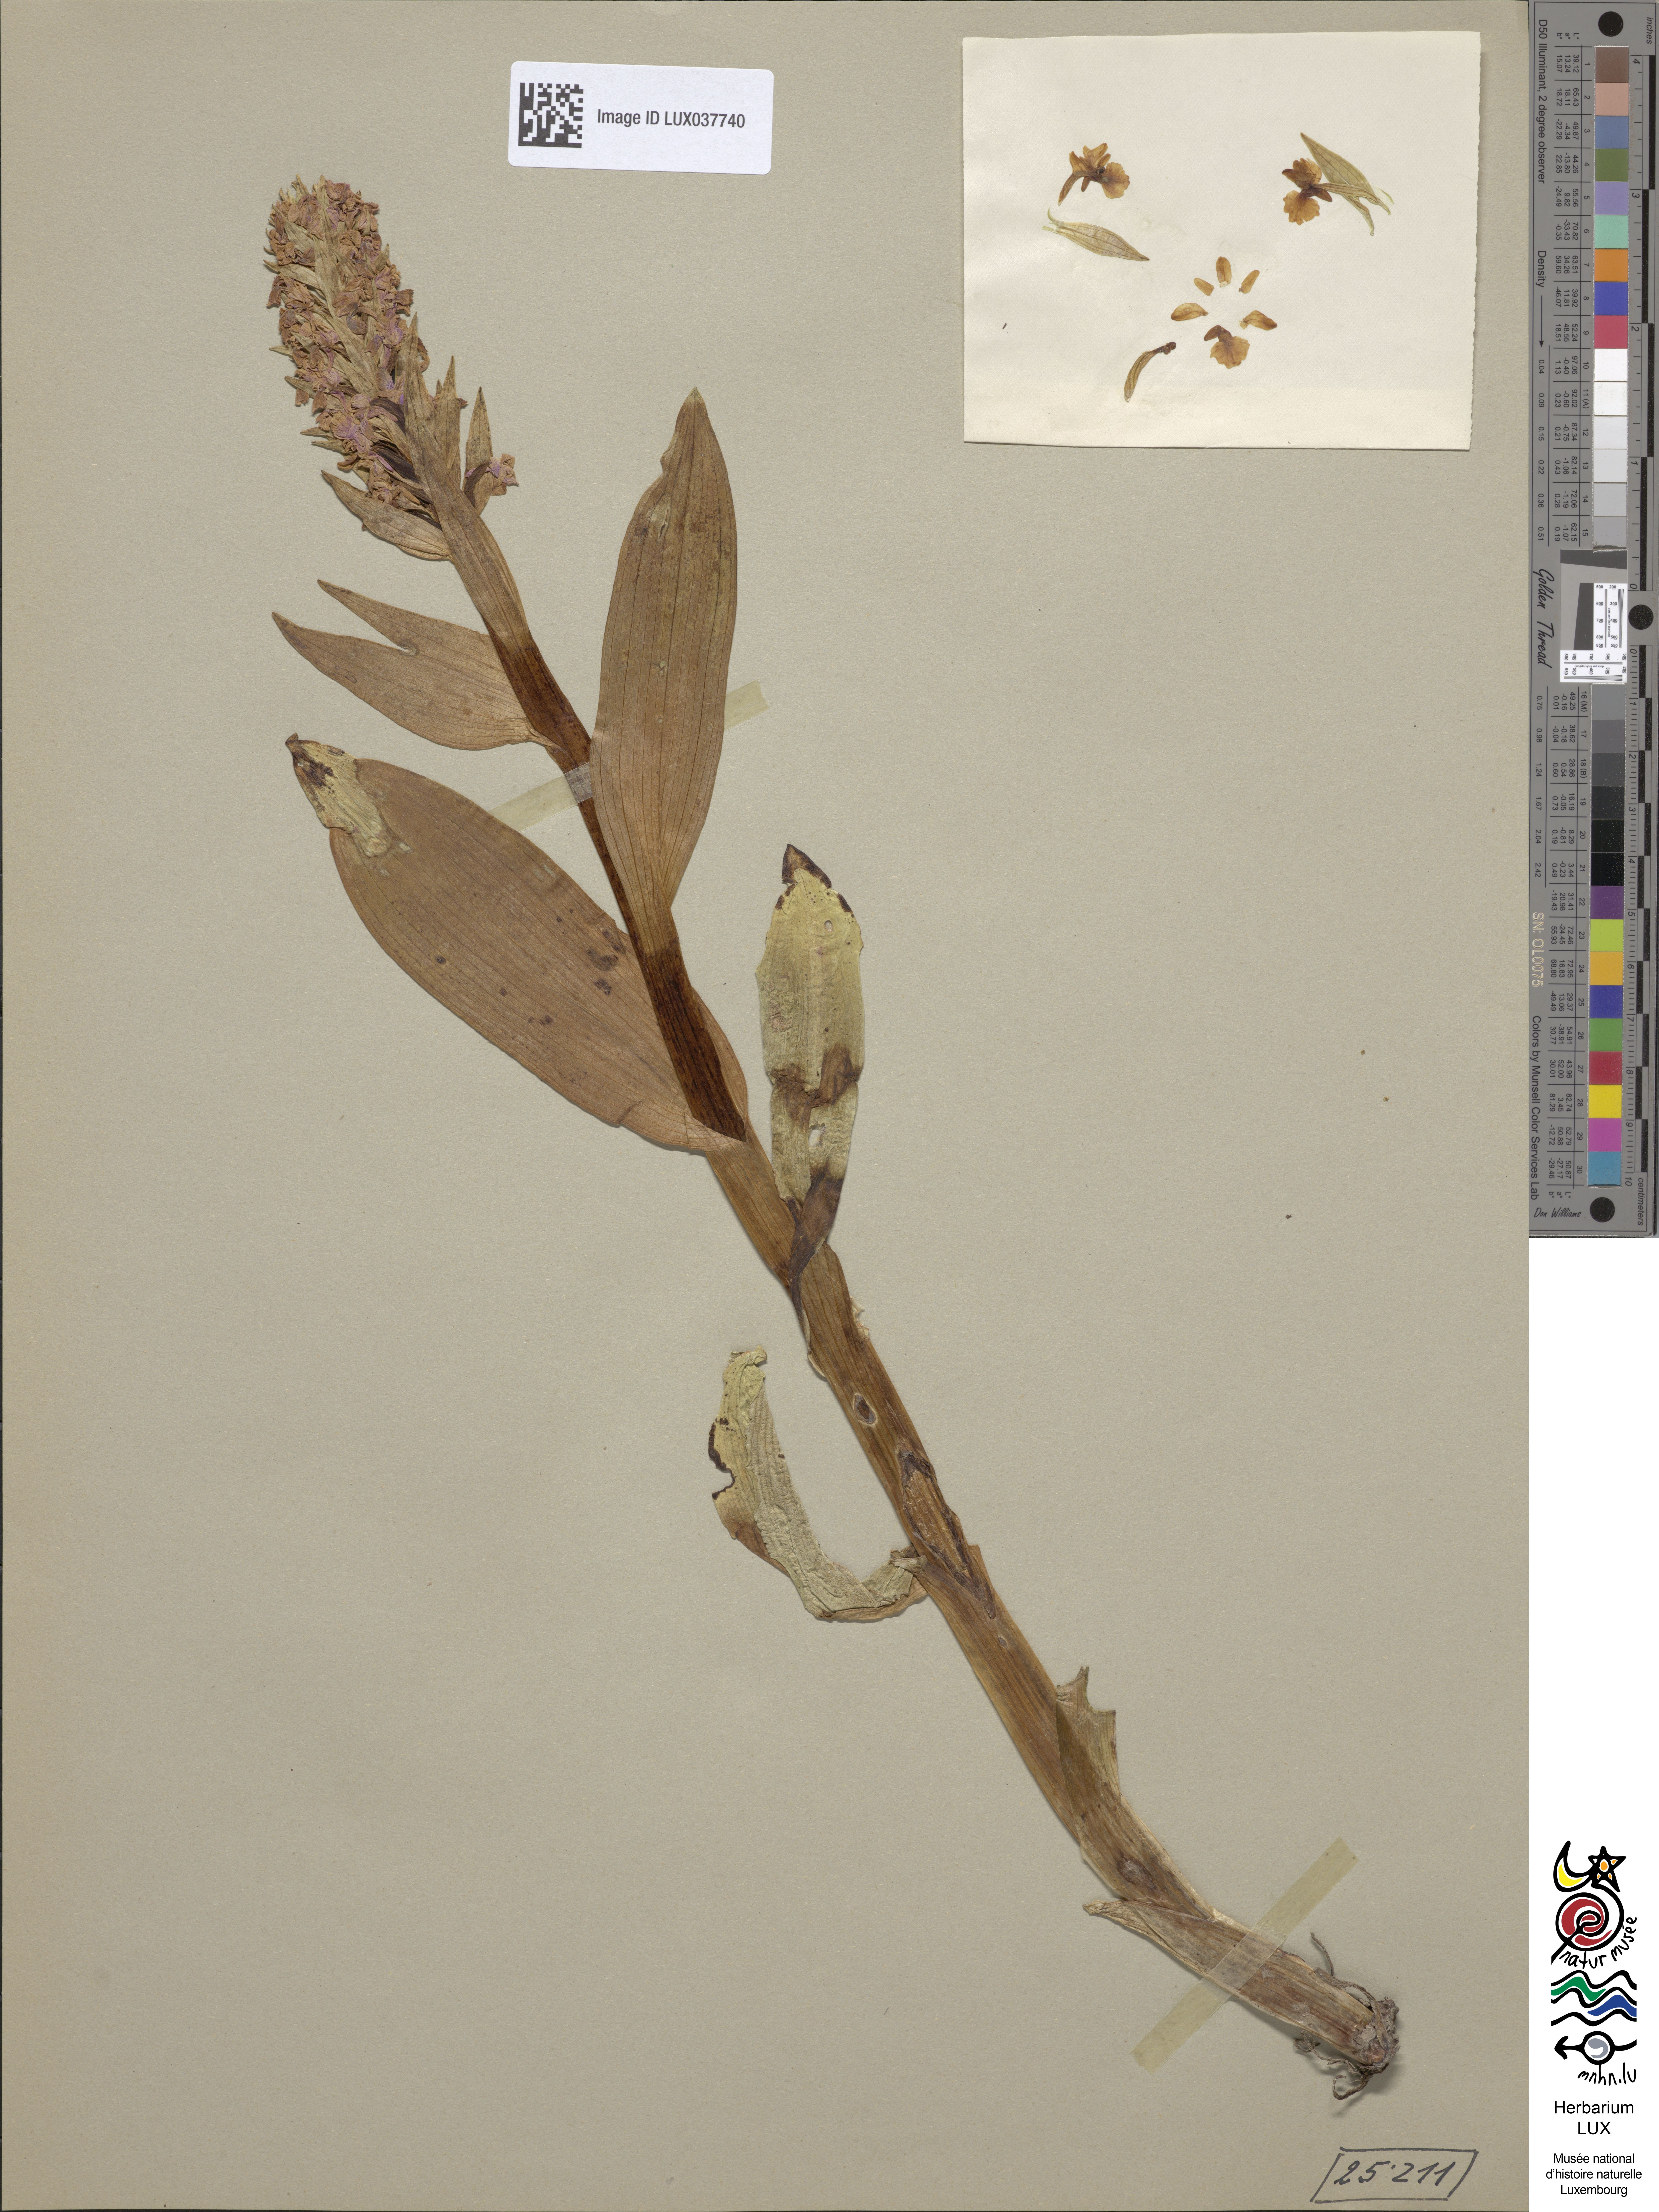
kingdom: Plantae
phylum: Tracheophyta
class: Liliopsida
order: Asparagales
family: Orchidaceae
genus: Dactylorhiza
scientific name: Dactylorhiza incarnata
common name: Early marsh-orchid
